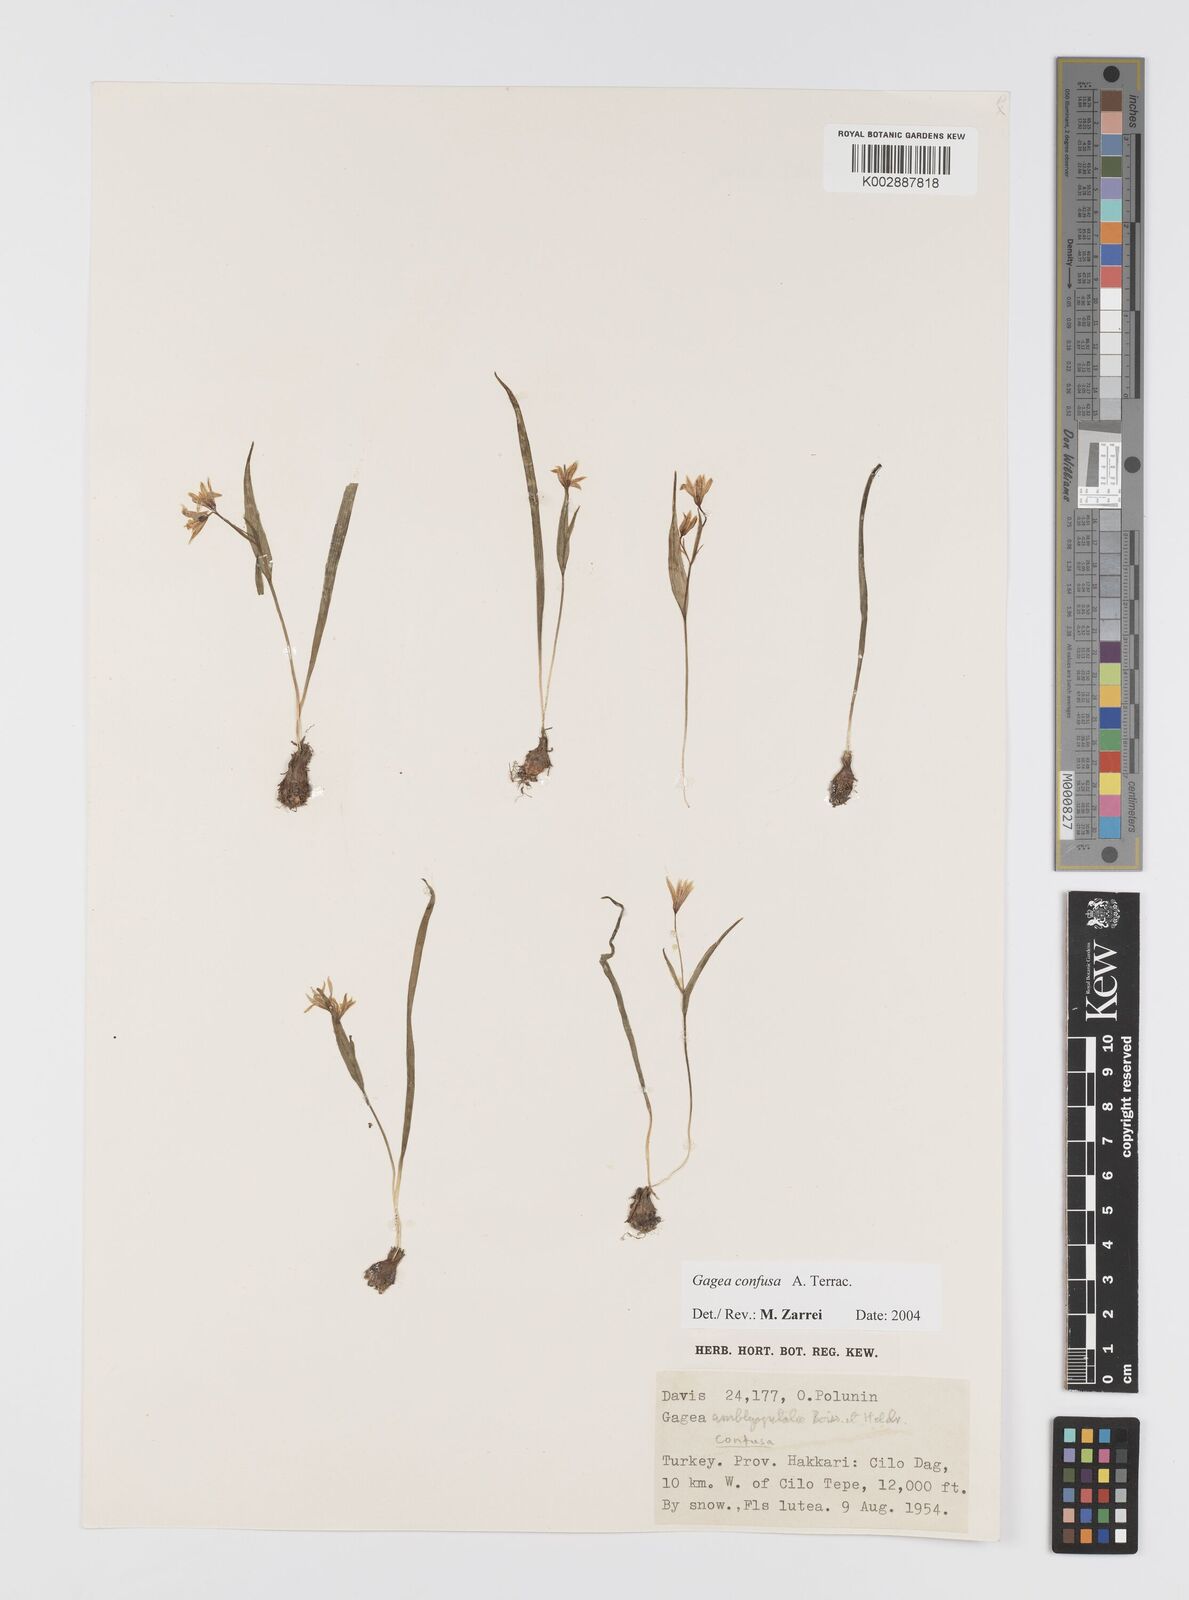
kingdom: Plantae
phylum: Tracheophyta
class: Liliopsida
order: Liliales
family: Liliaceae
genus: Gagea
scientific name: Gagea confusa
